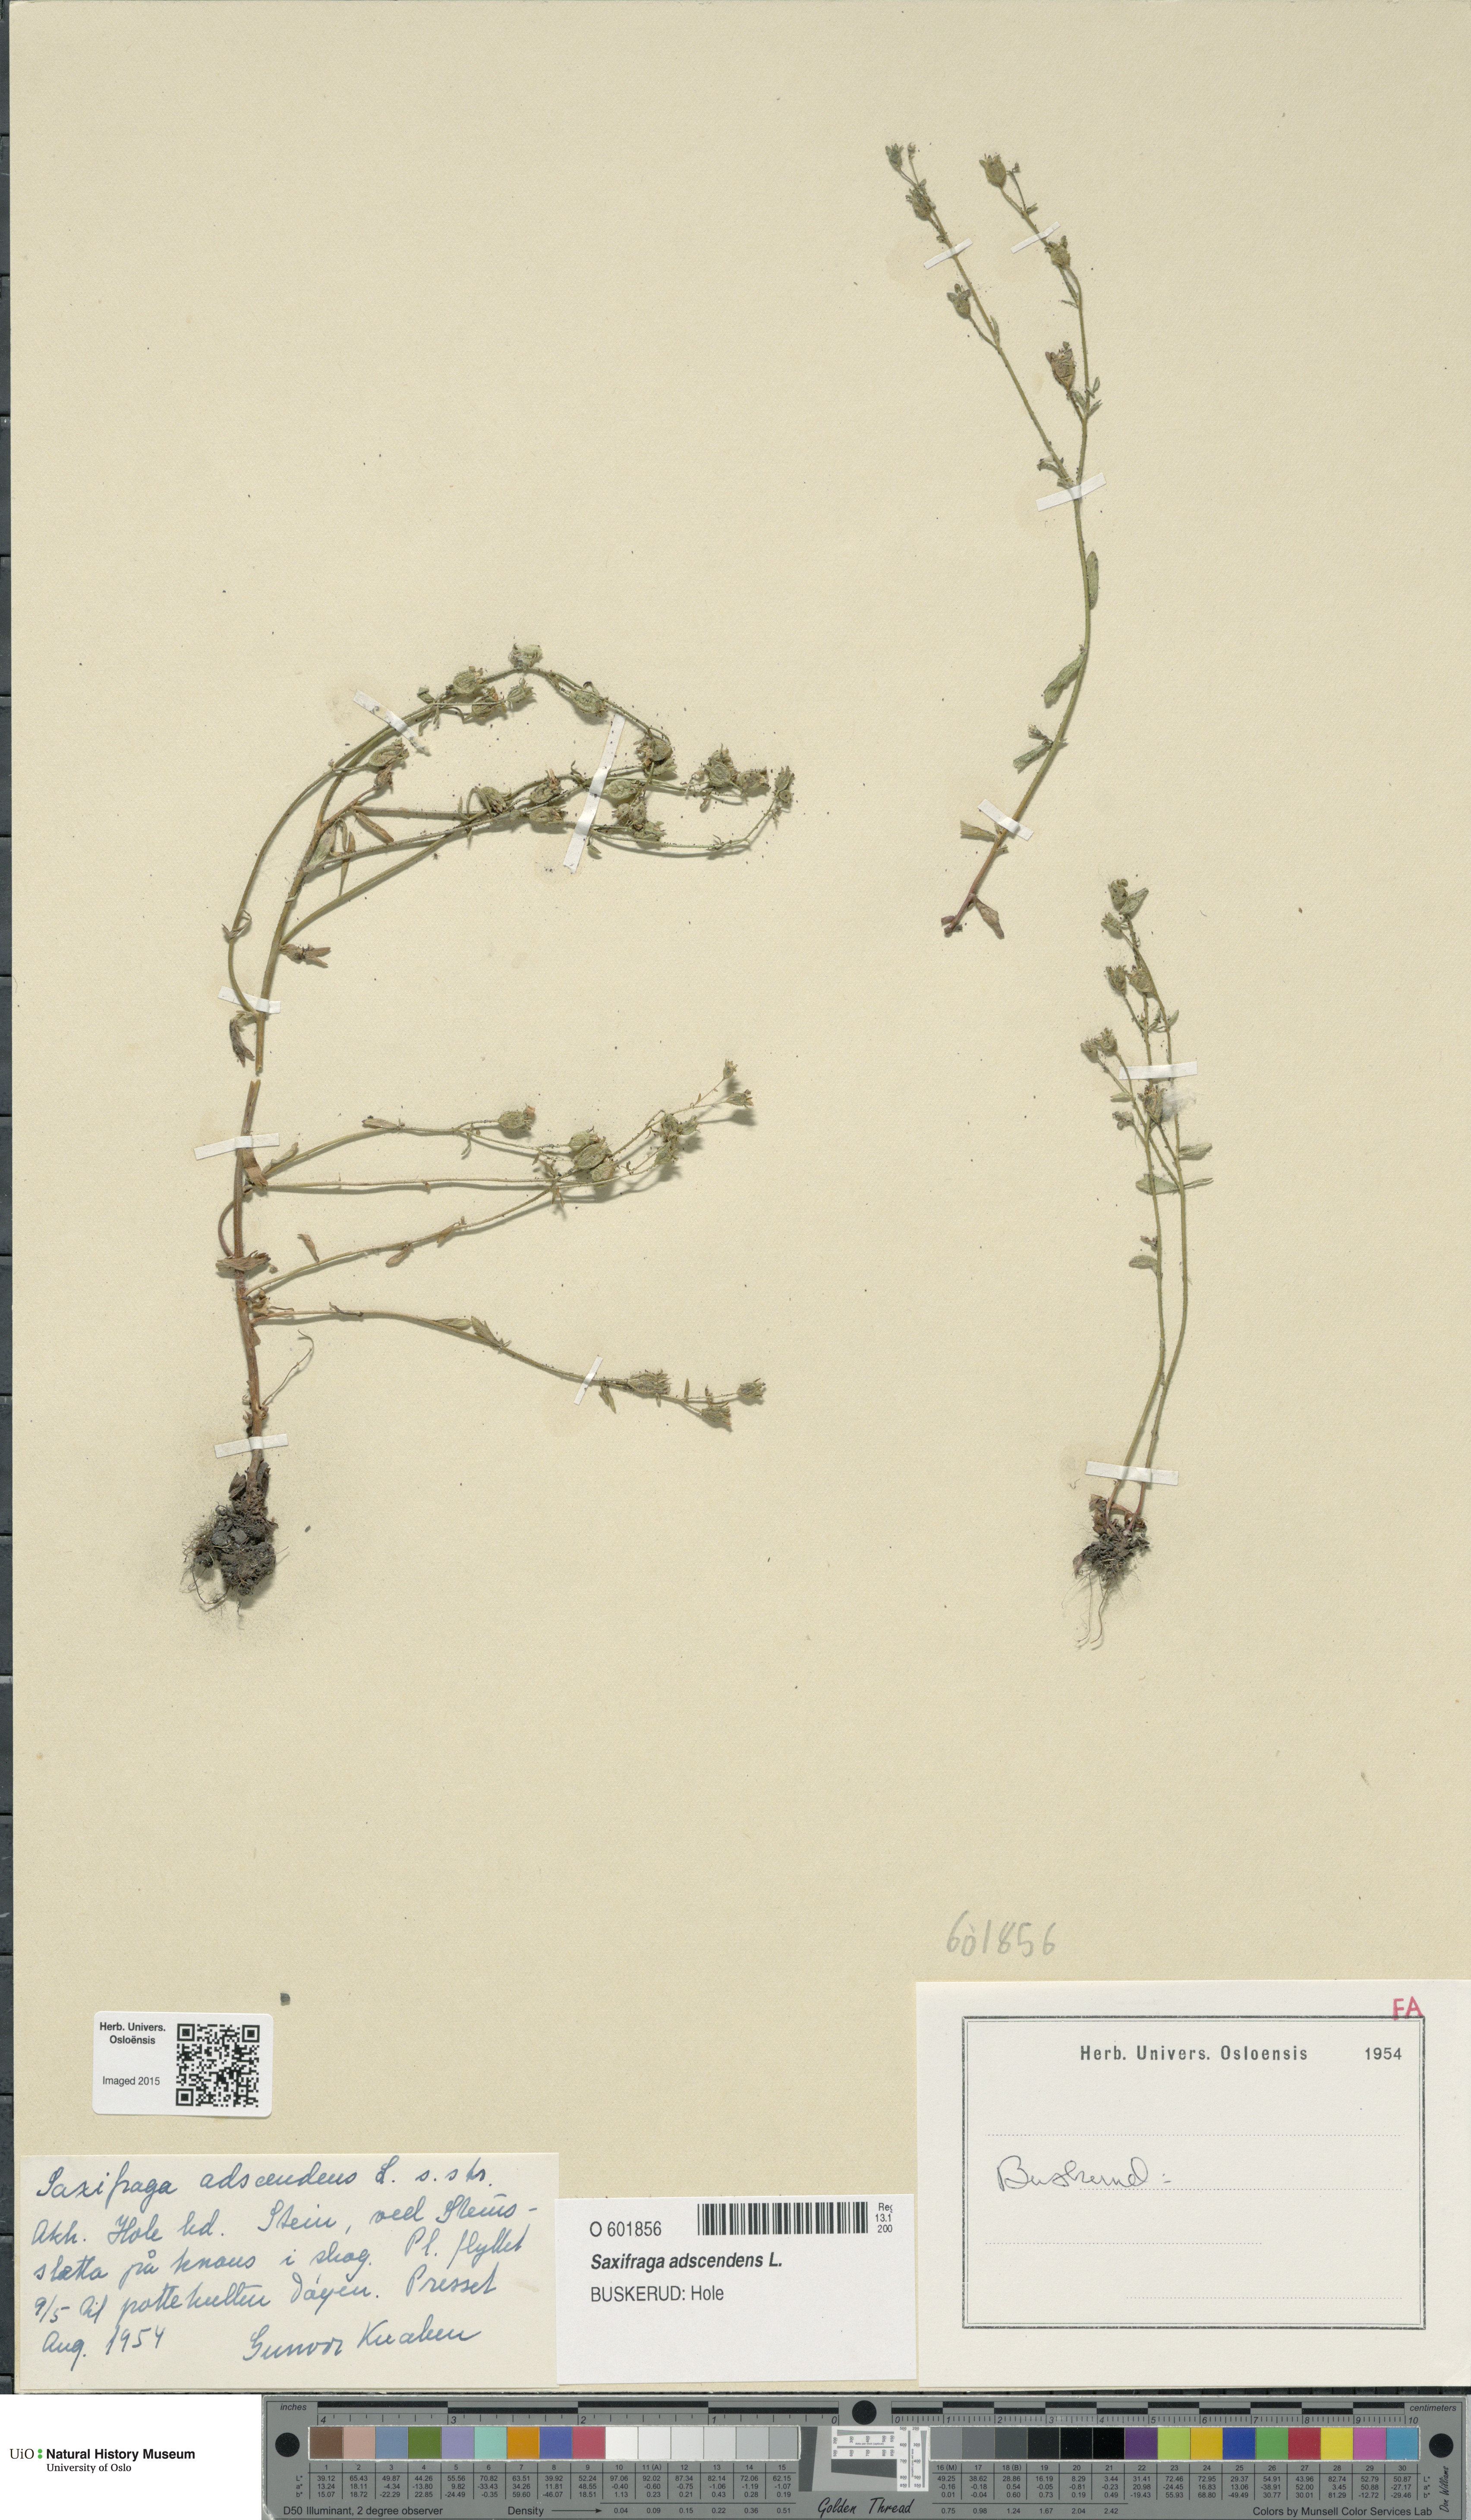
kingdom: Plantae
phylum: Tracheophyta
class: Magnoliopsida
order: Saxifragales
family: Saxifragaceae
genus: Saxifraga
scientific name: Saxifraga adscendens
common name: Ascending saxifrage
